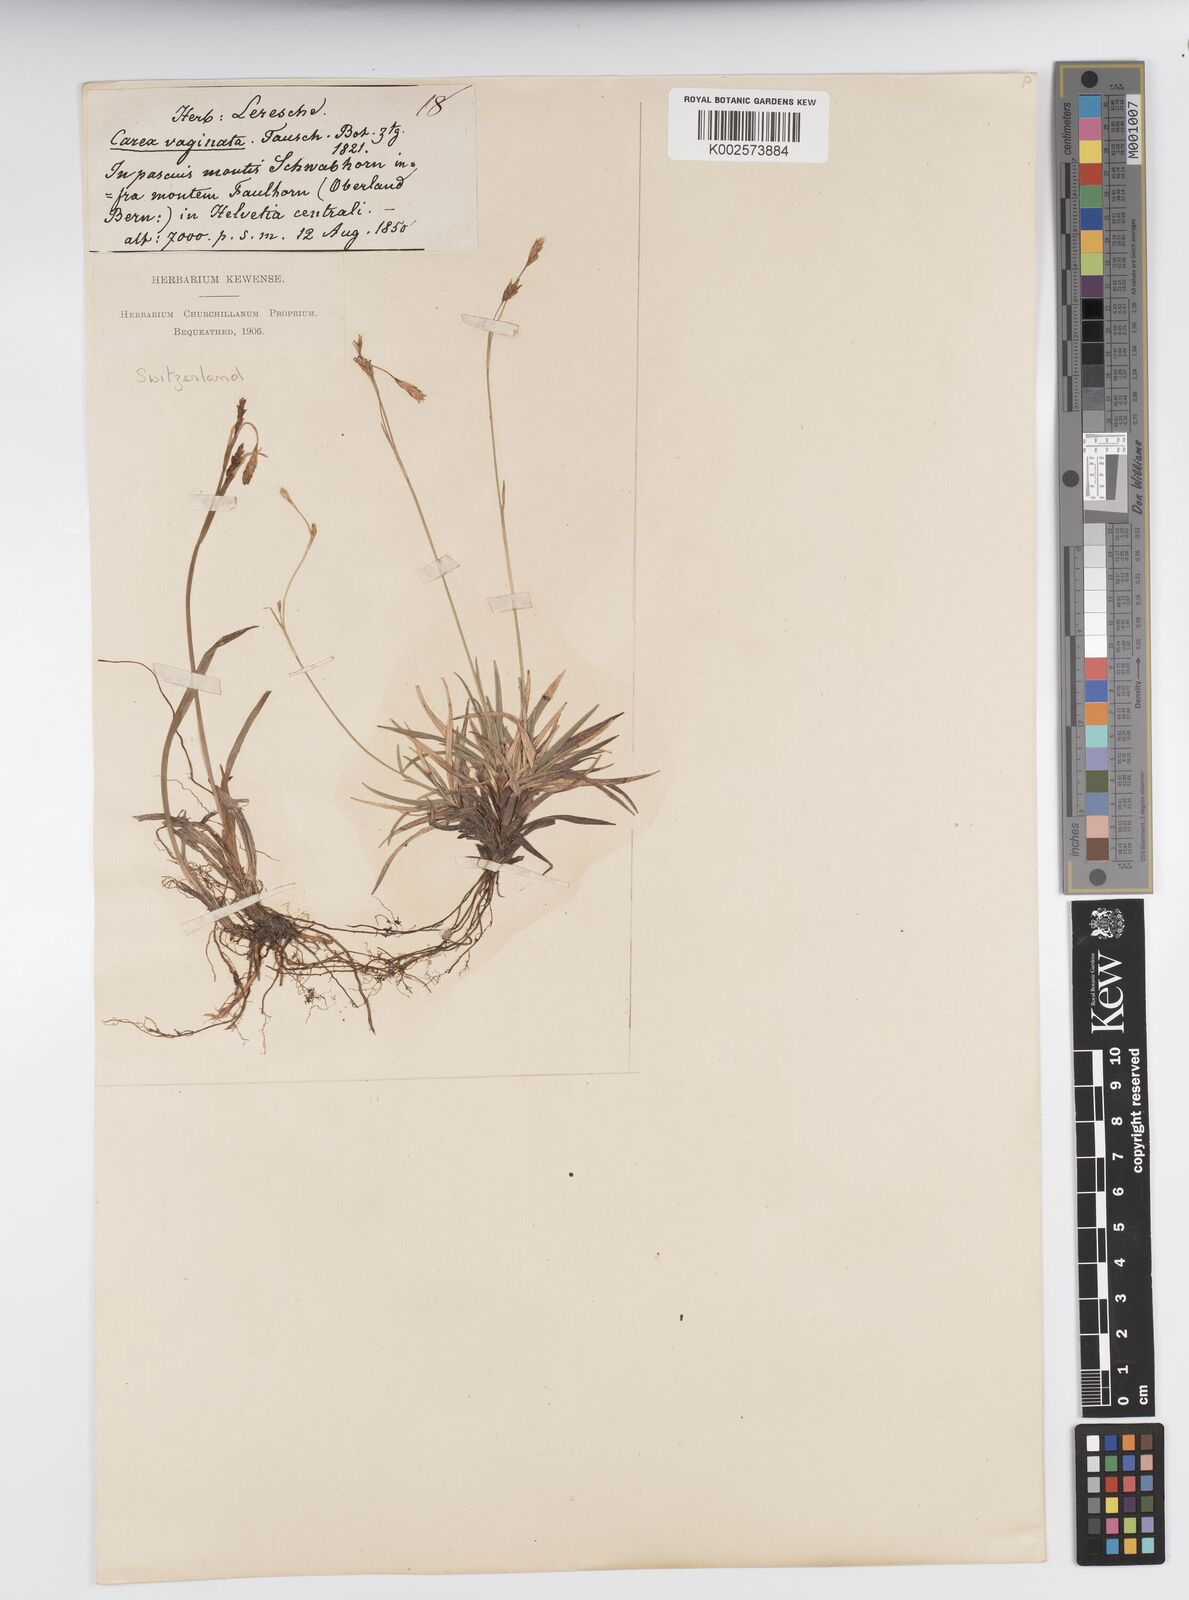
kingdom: Plantae
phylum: Tracheophyta
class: Liliopsida
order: Poales
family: Cyperaceae
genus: Carex
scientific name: Carex vaginata
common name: Sheathed sedge
